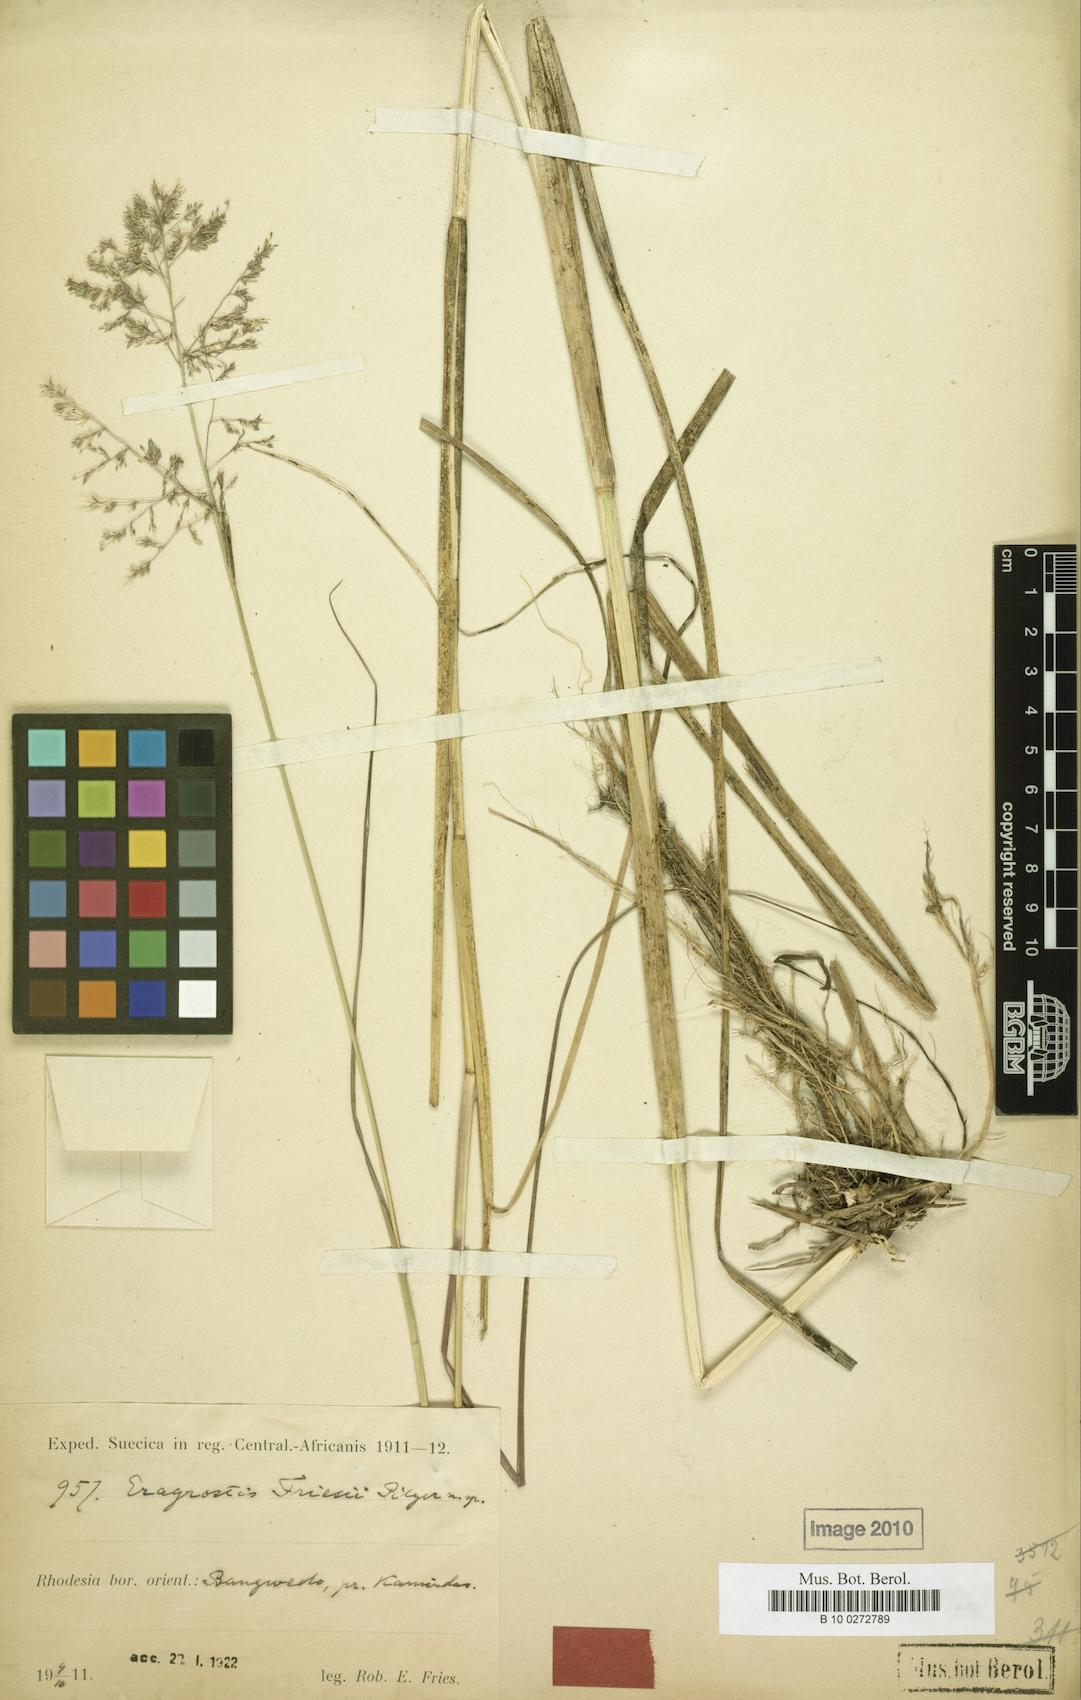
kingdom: Plantae
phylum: Tracheophyta
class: Liliopsida
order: Poales
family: Poaceae
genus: Eragrostis
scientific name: Eragrostis friesii
